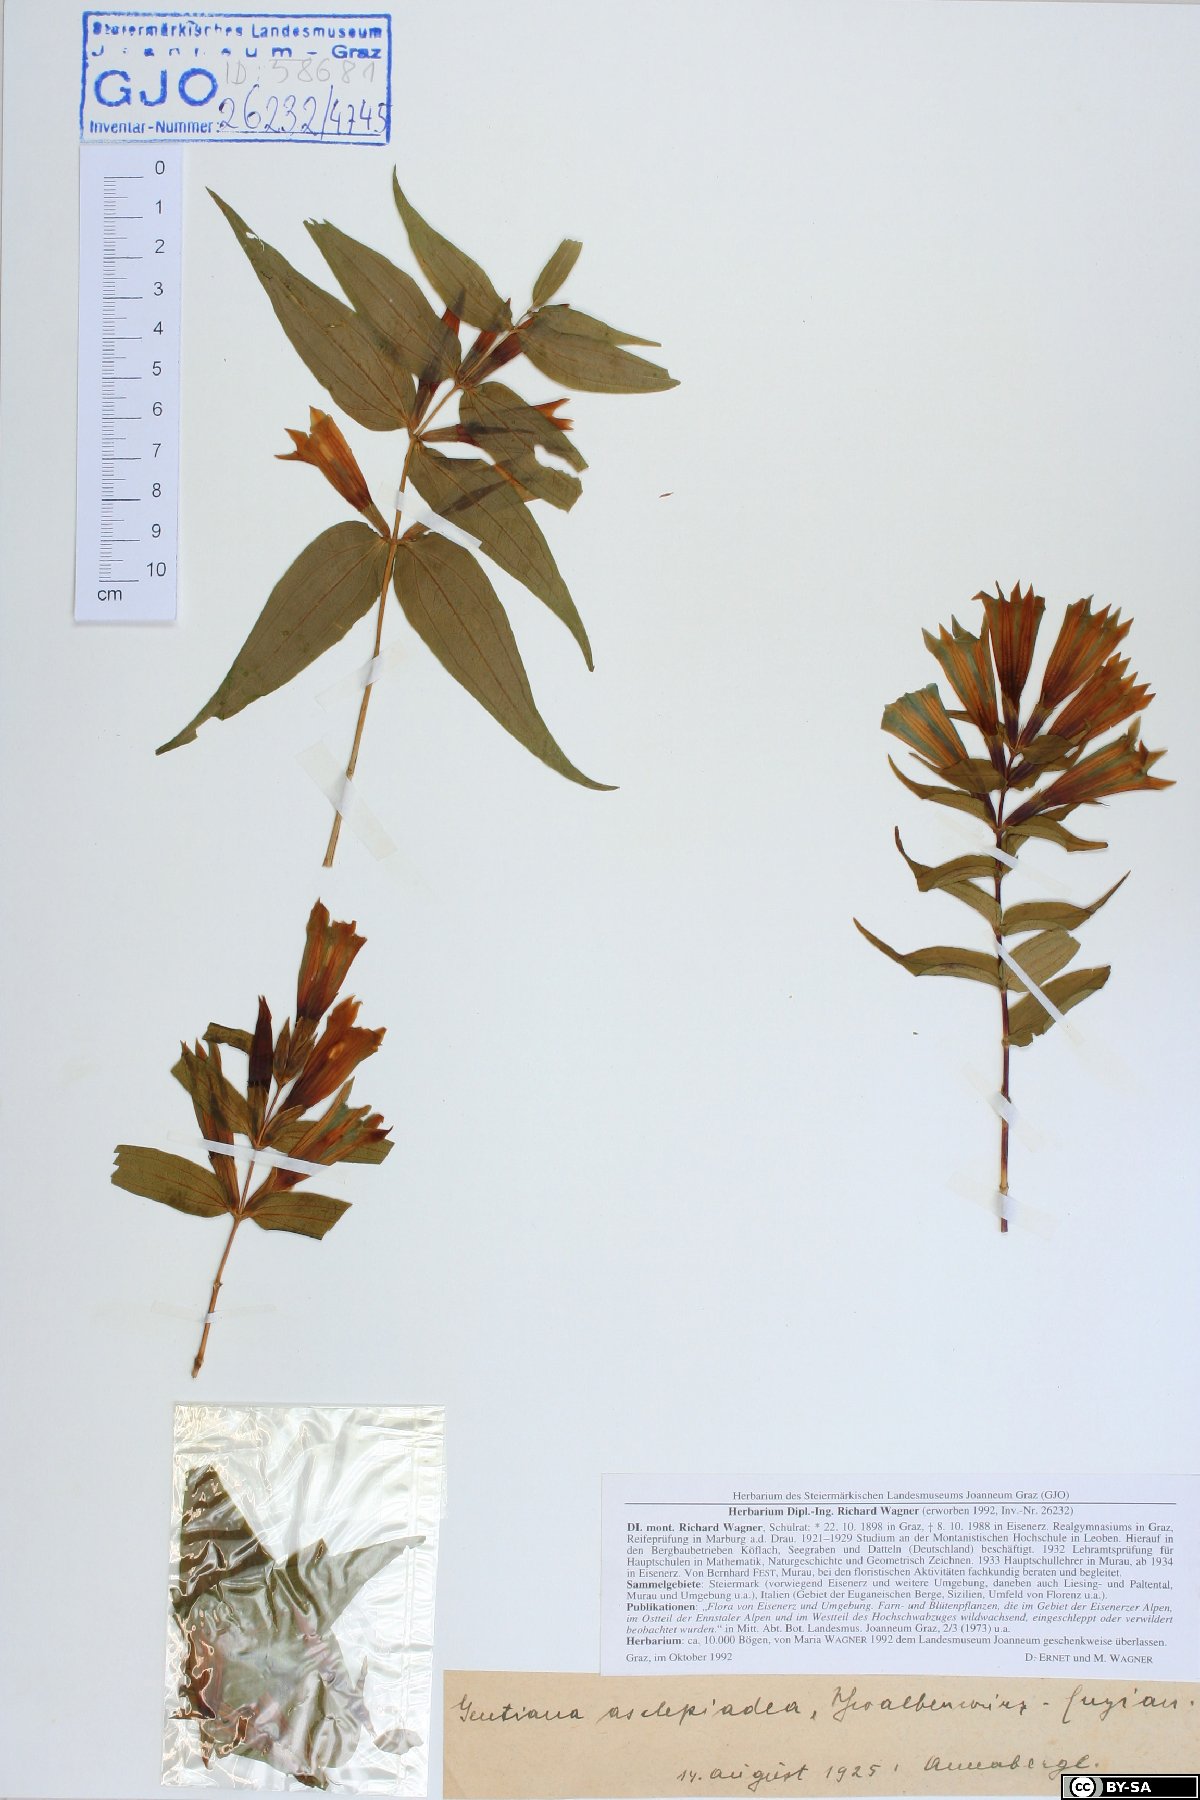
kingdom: Plantae
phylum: Tracheophyta
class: Magnoliopsida
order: Gentianales
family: Gentianaceae
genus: Gentiana
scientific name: Gentiana asclepiadea
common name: Willow gentian
